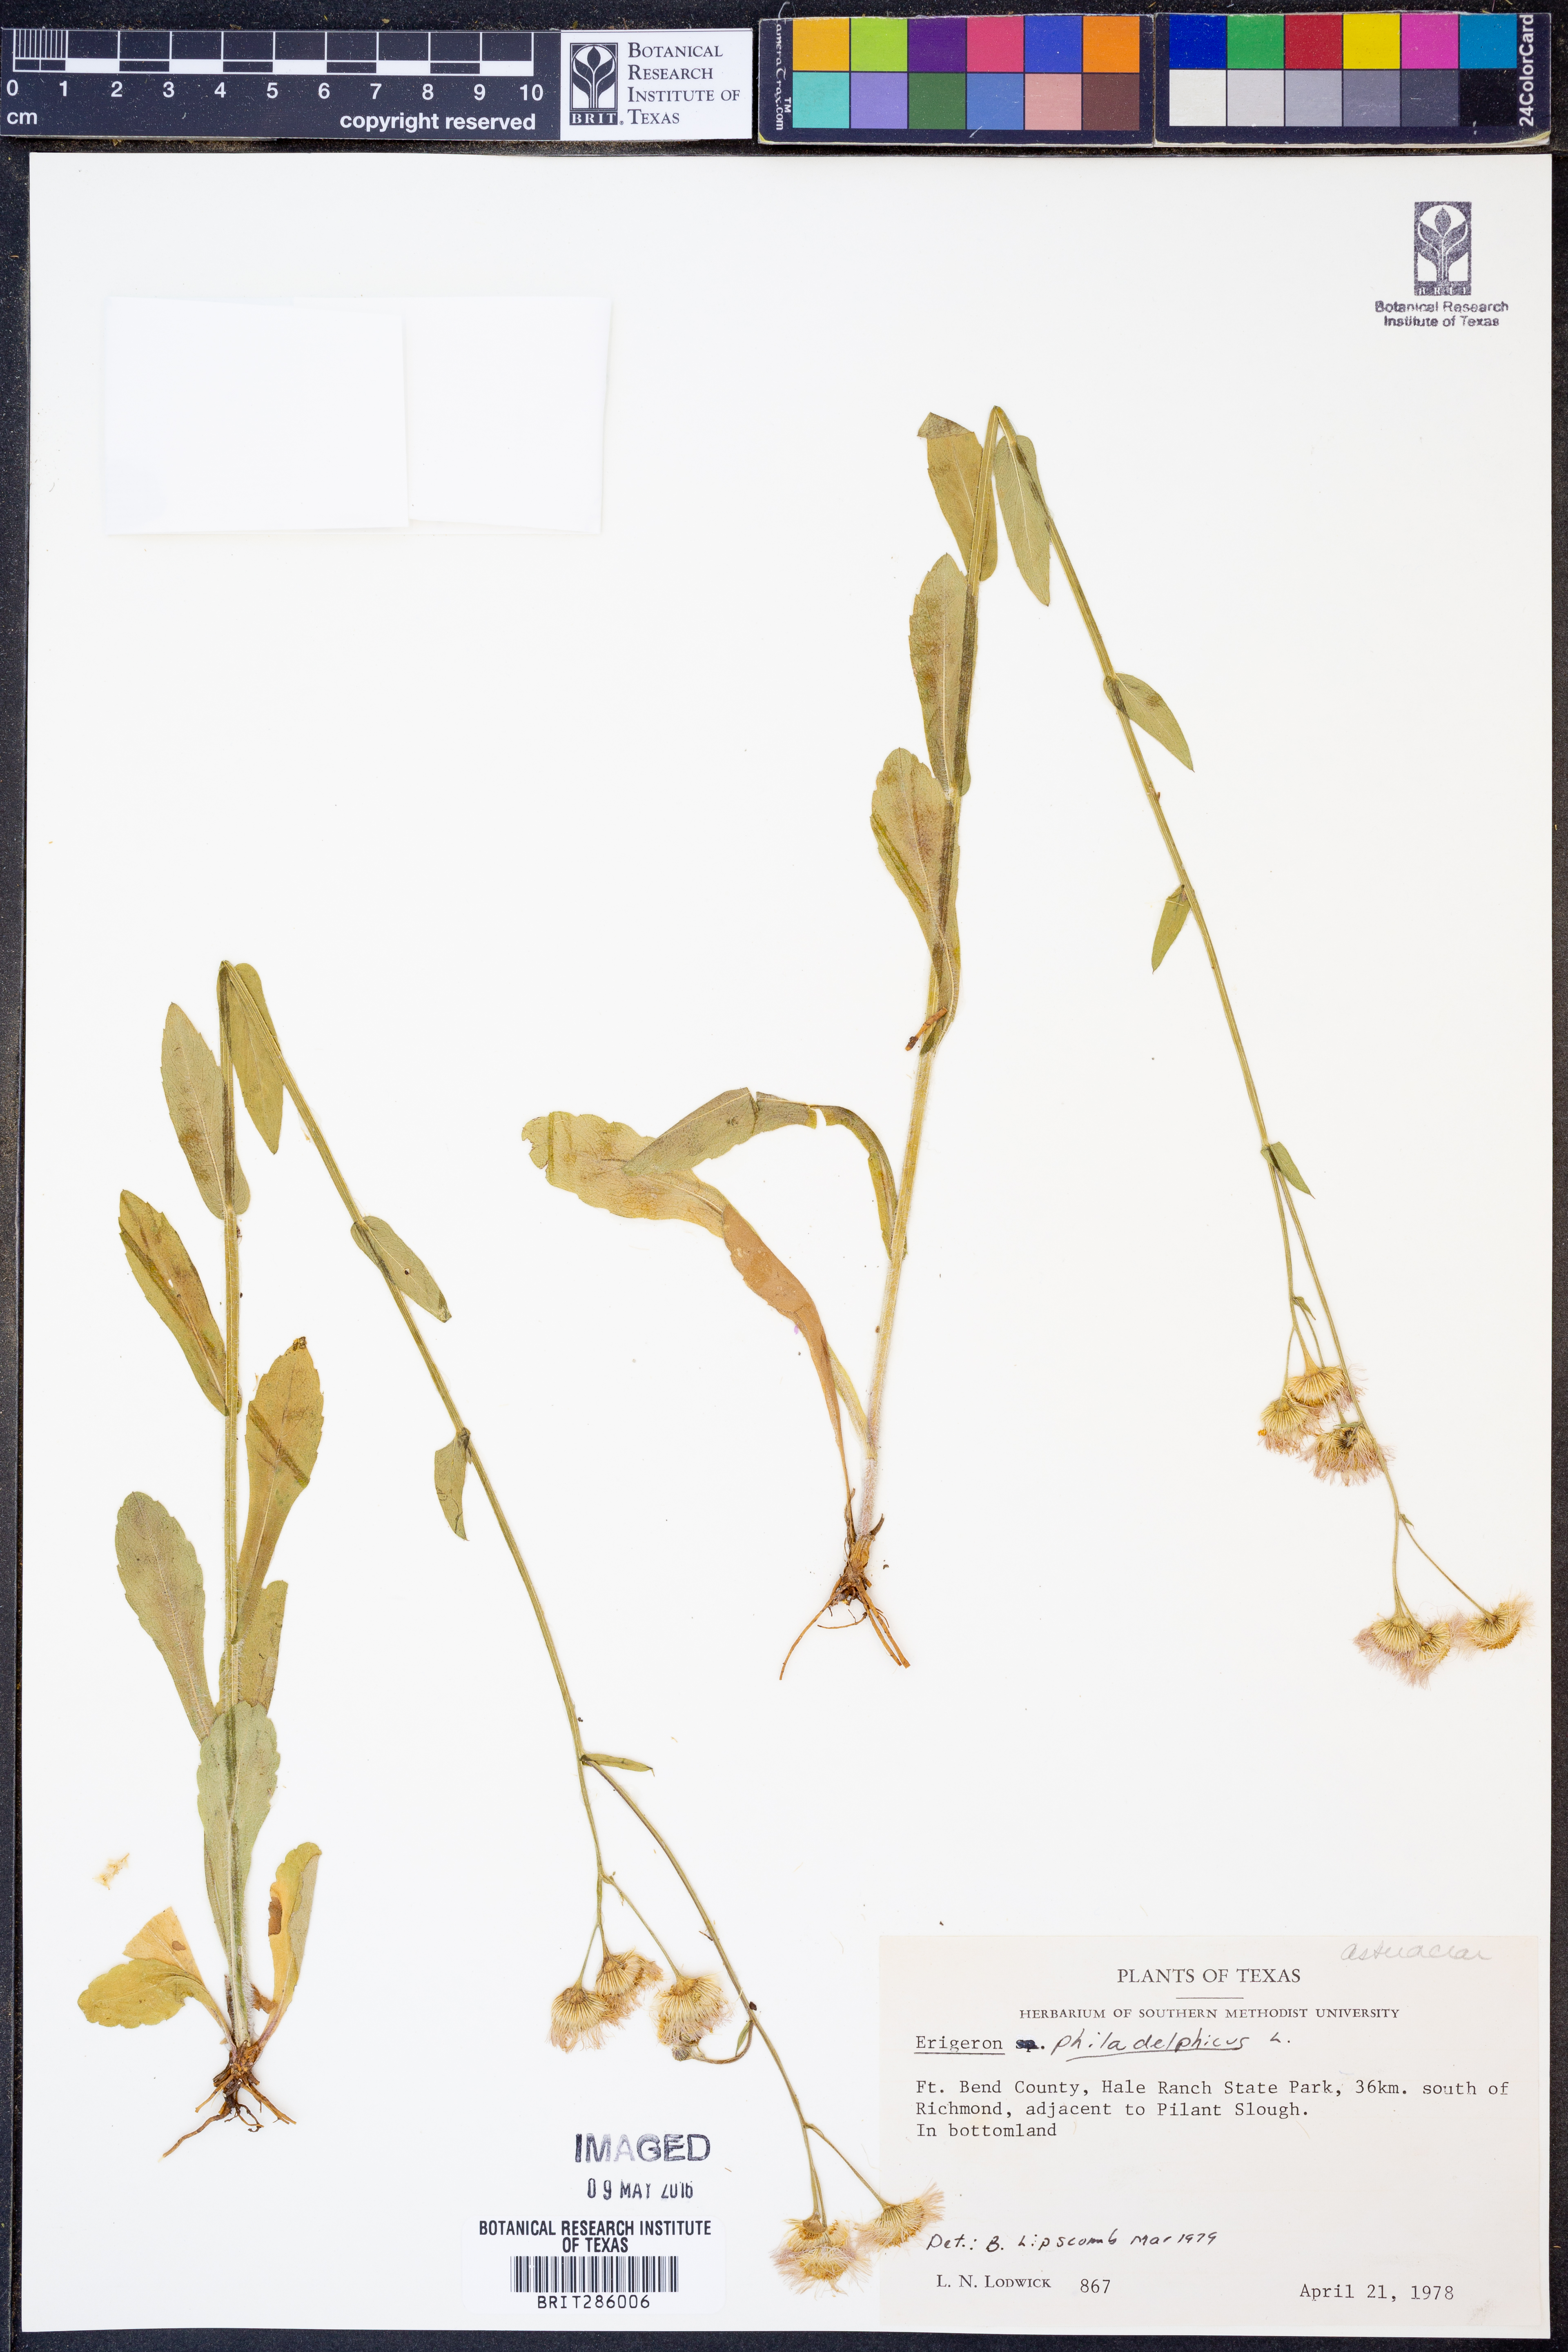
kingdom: Plantae
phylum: Tracheophyta
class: Magnoliopsida
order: Asterales
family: Asteraceae
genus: Erigeron
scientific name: Erigeron philadelphicus
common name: Robin's-plantain
